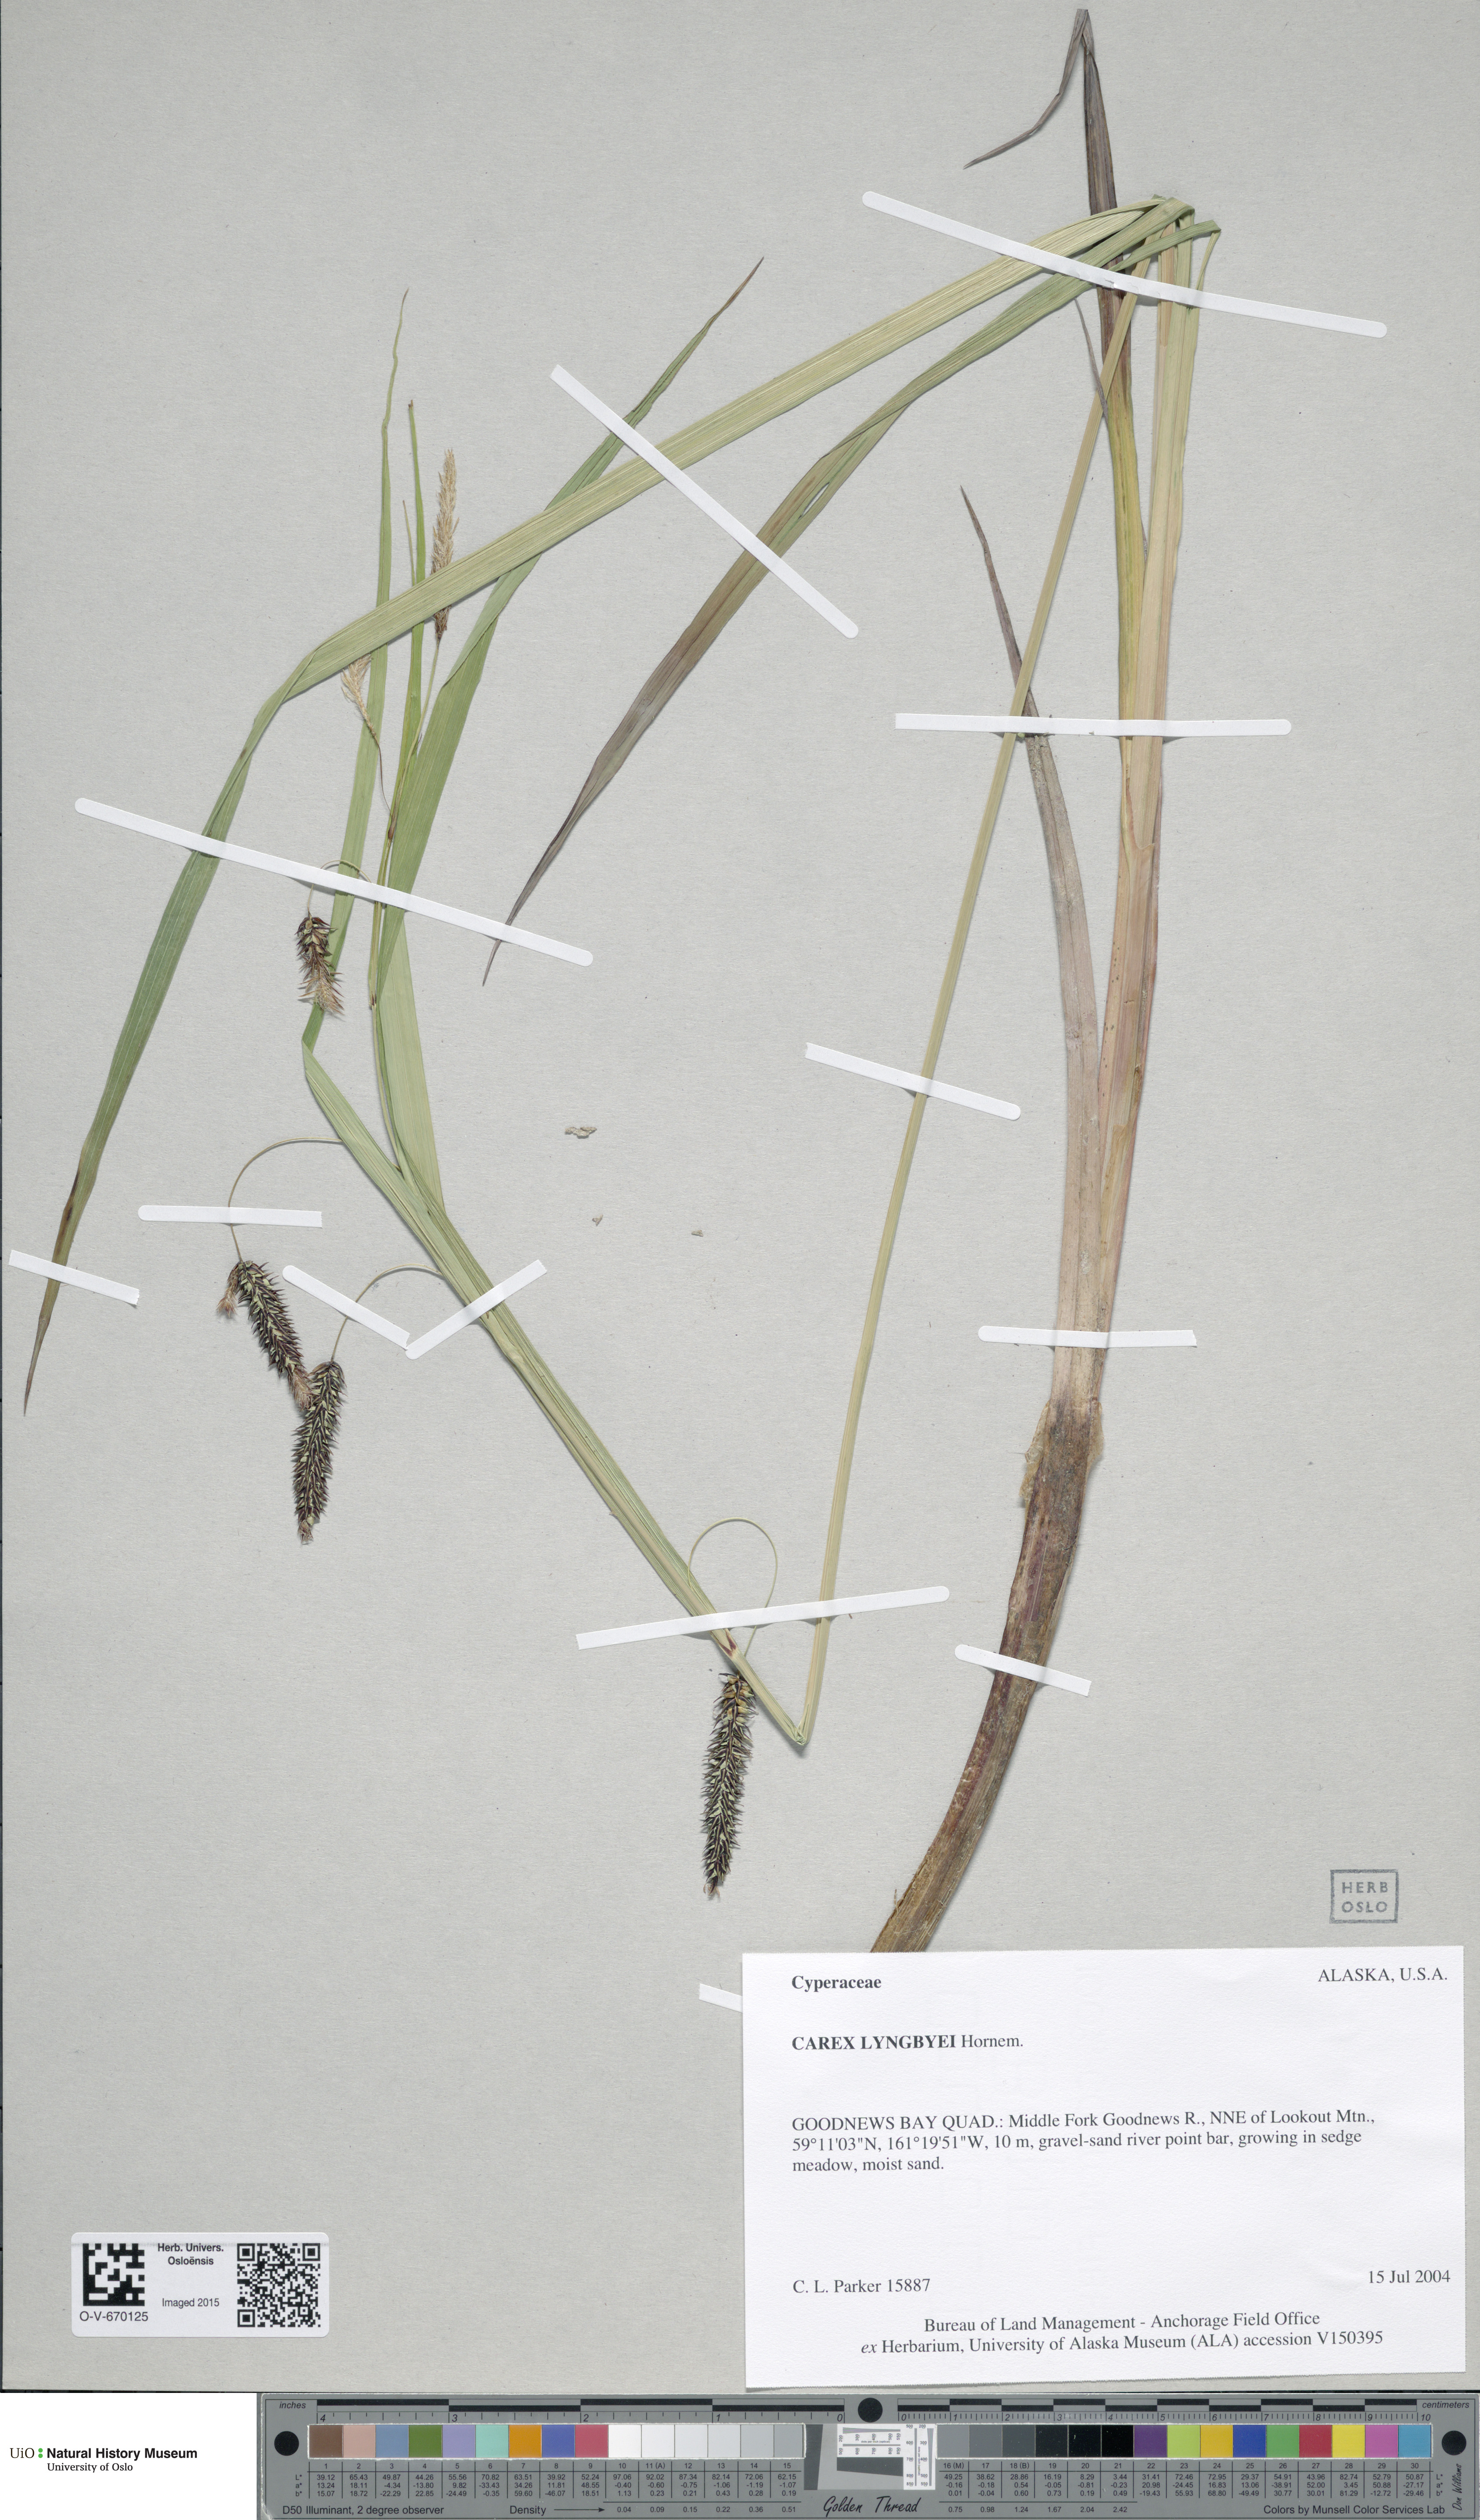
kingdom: Plantae
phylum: Tracheophyta
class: Liliopsida
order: Poales
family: Cyperaceae
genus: Carex
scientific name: Carex lyngbyei
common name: Lyngbye's sedge
